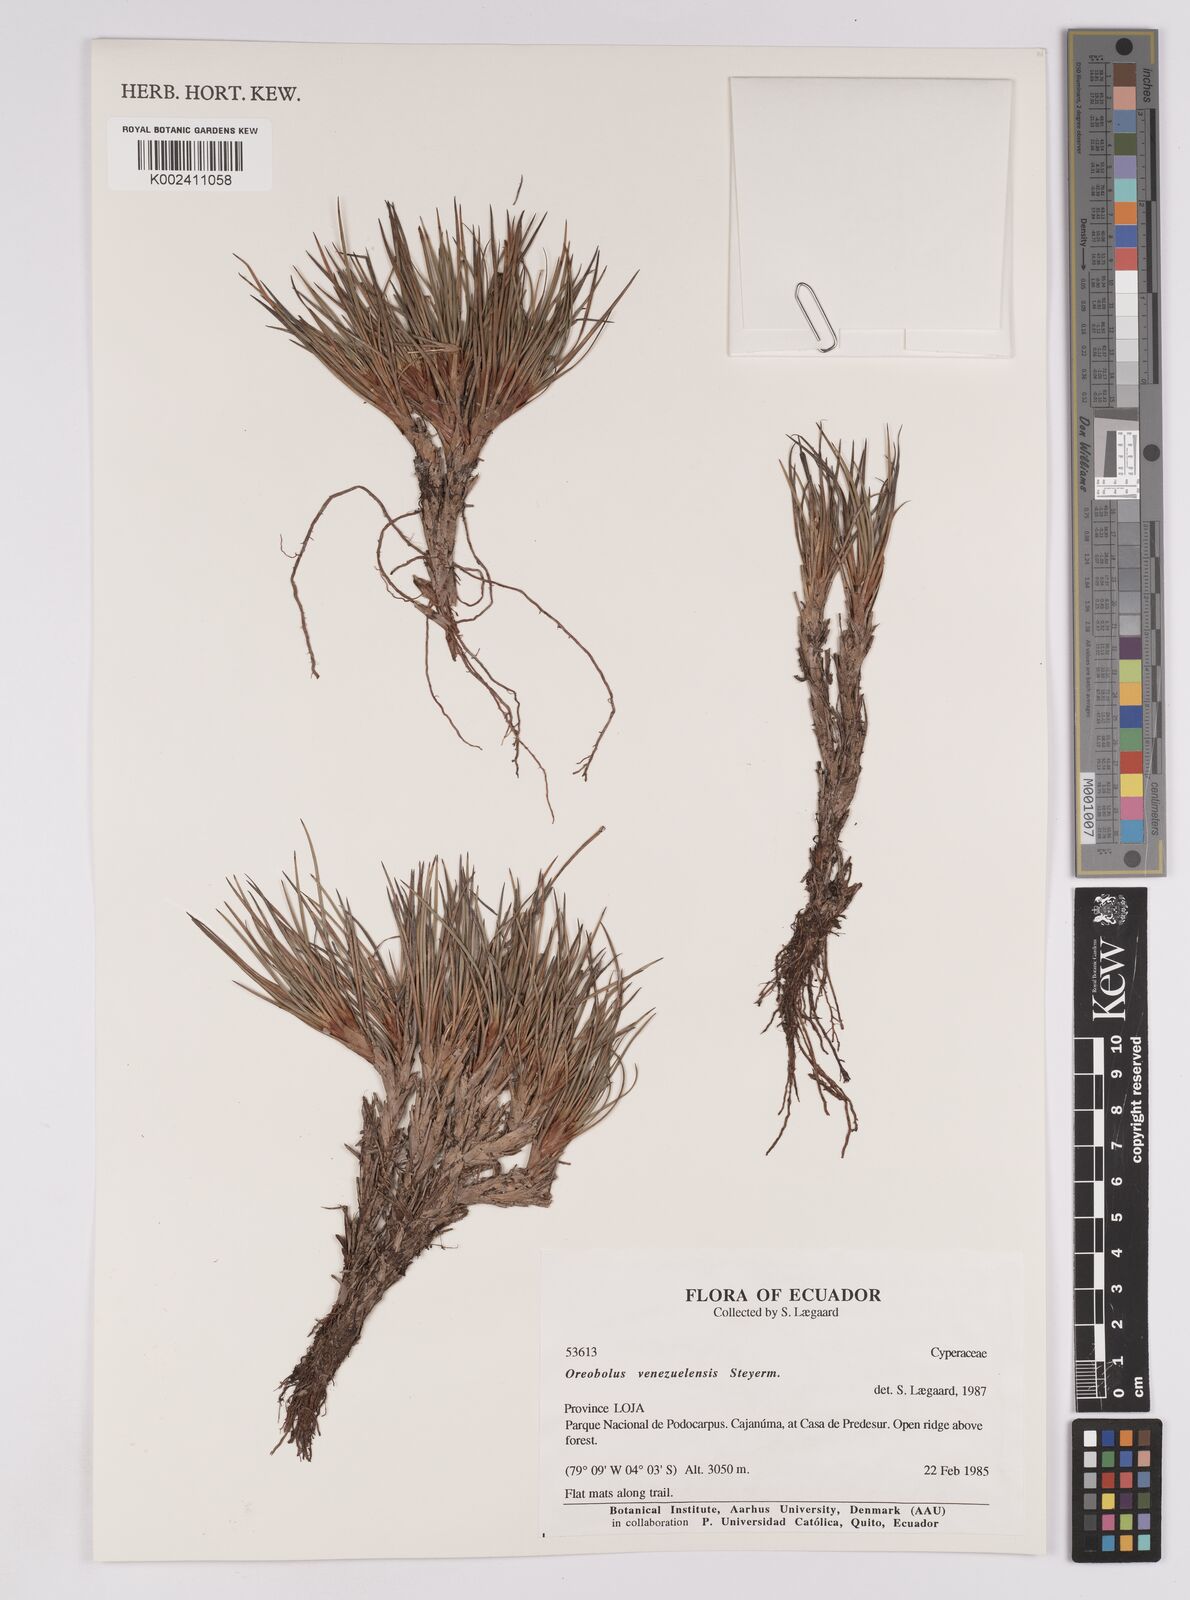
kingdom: Plantae
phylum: Tracheophyta
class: Liliopsida
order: Poales
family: Cyperaceae
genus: Oreobolus
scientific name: Oreobolus venezuelensis
